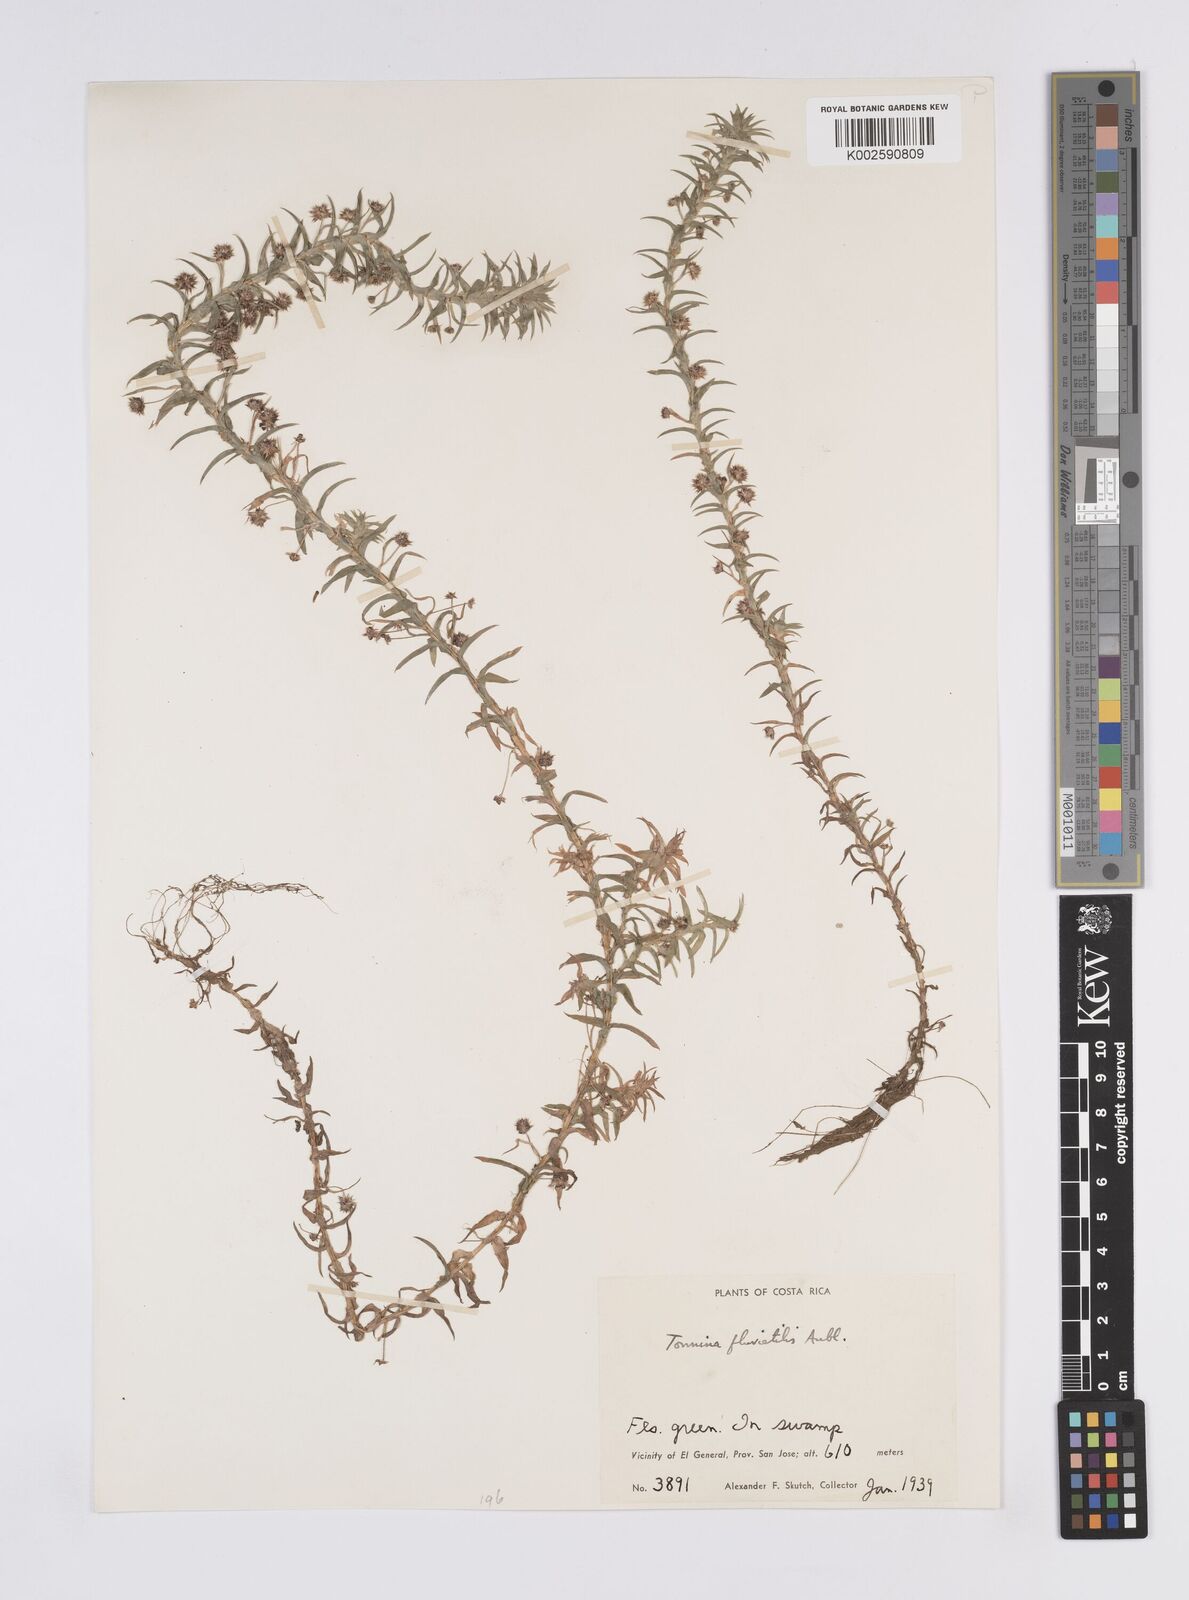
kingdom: Plantae
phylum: Tracheophyta
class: Liliopsida
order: Poales
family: Eriocaulaceae
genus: Paepalanthus
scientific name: Paepalanthus fluviatilis
